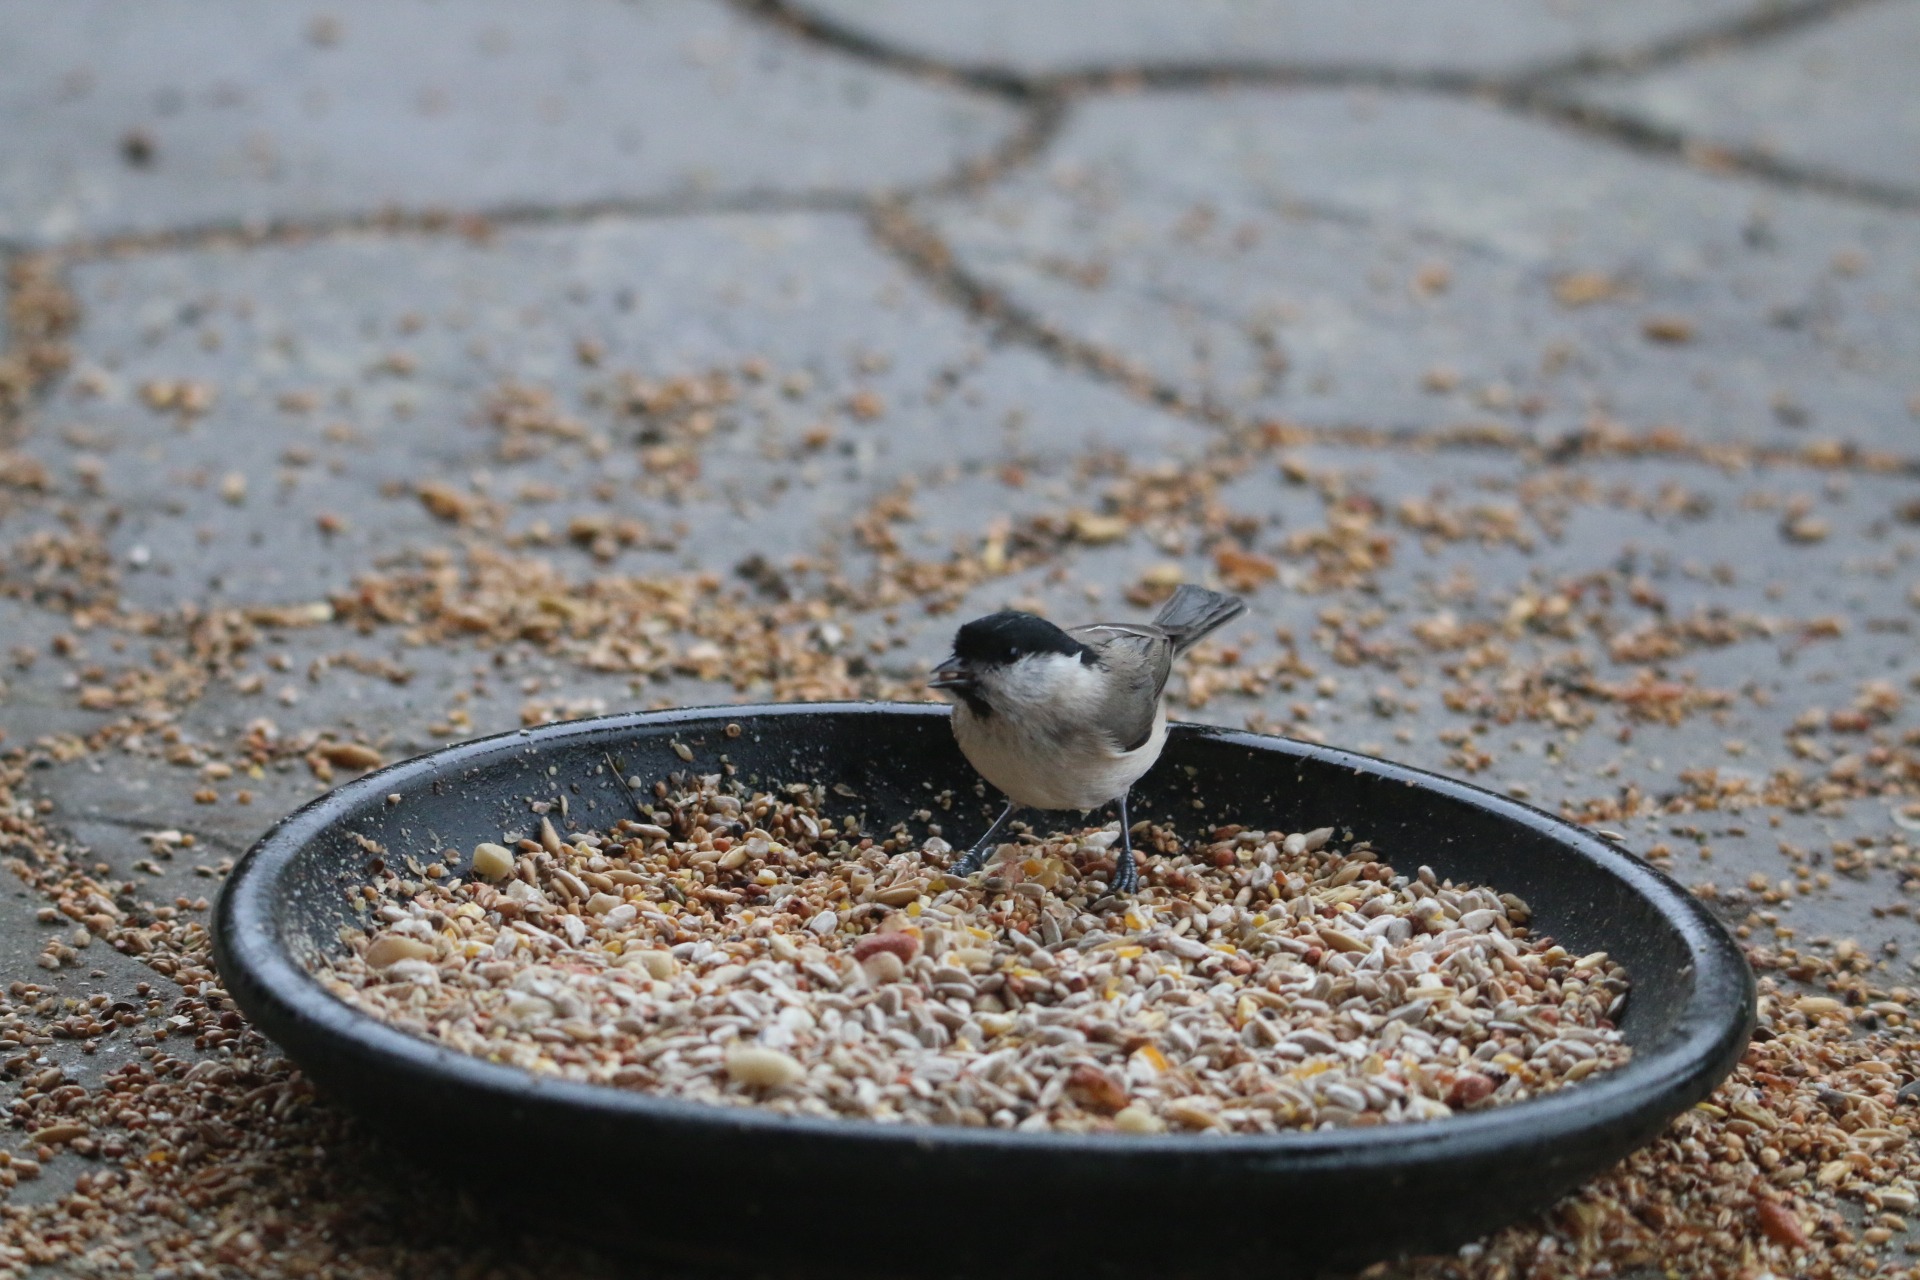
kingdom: Animalia
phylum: Chordata
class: Aves
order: Passeriformes
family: Paridae
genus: Poecile
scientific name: Poecile palustris
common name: Sumpmejse
